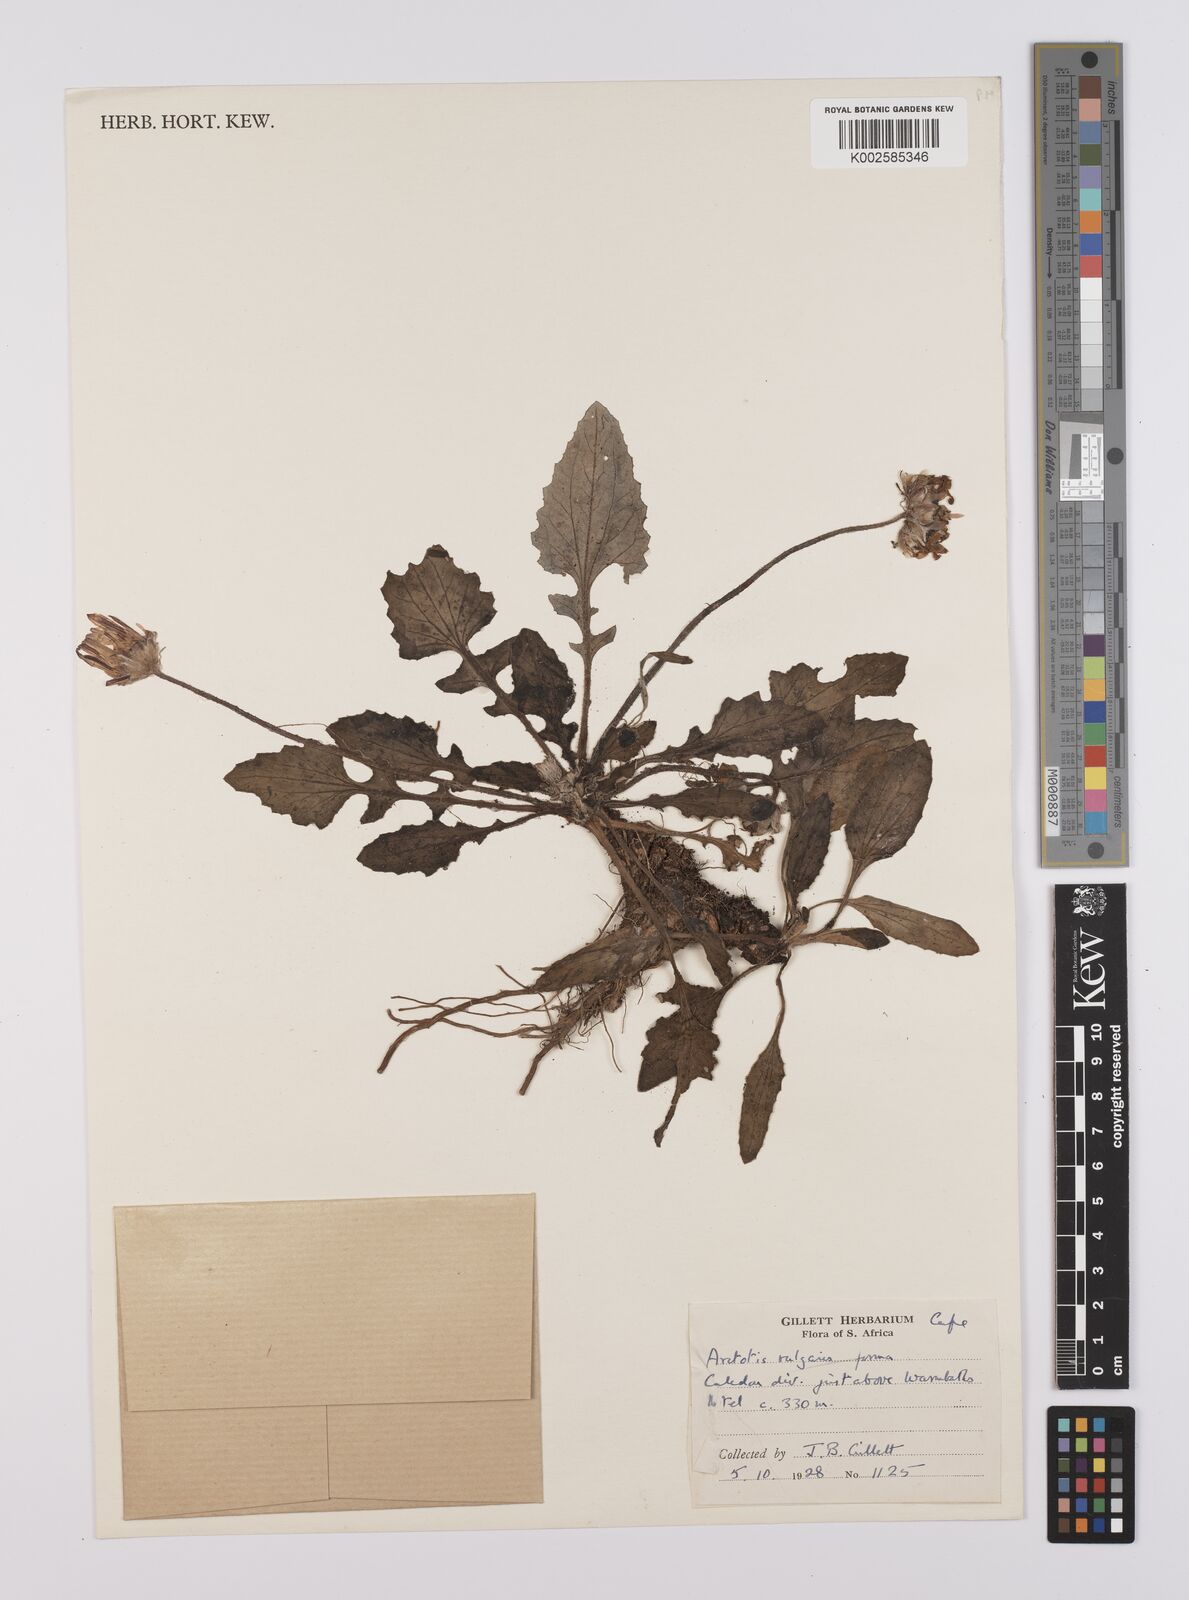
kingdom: Plantae
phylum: Tracheophyta
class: Magnoliopsida
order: Asterales
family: Asteraceae
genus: Arctotis
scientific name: Arctotis
